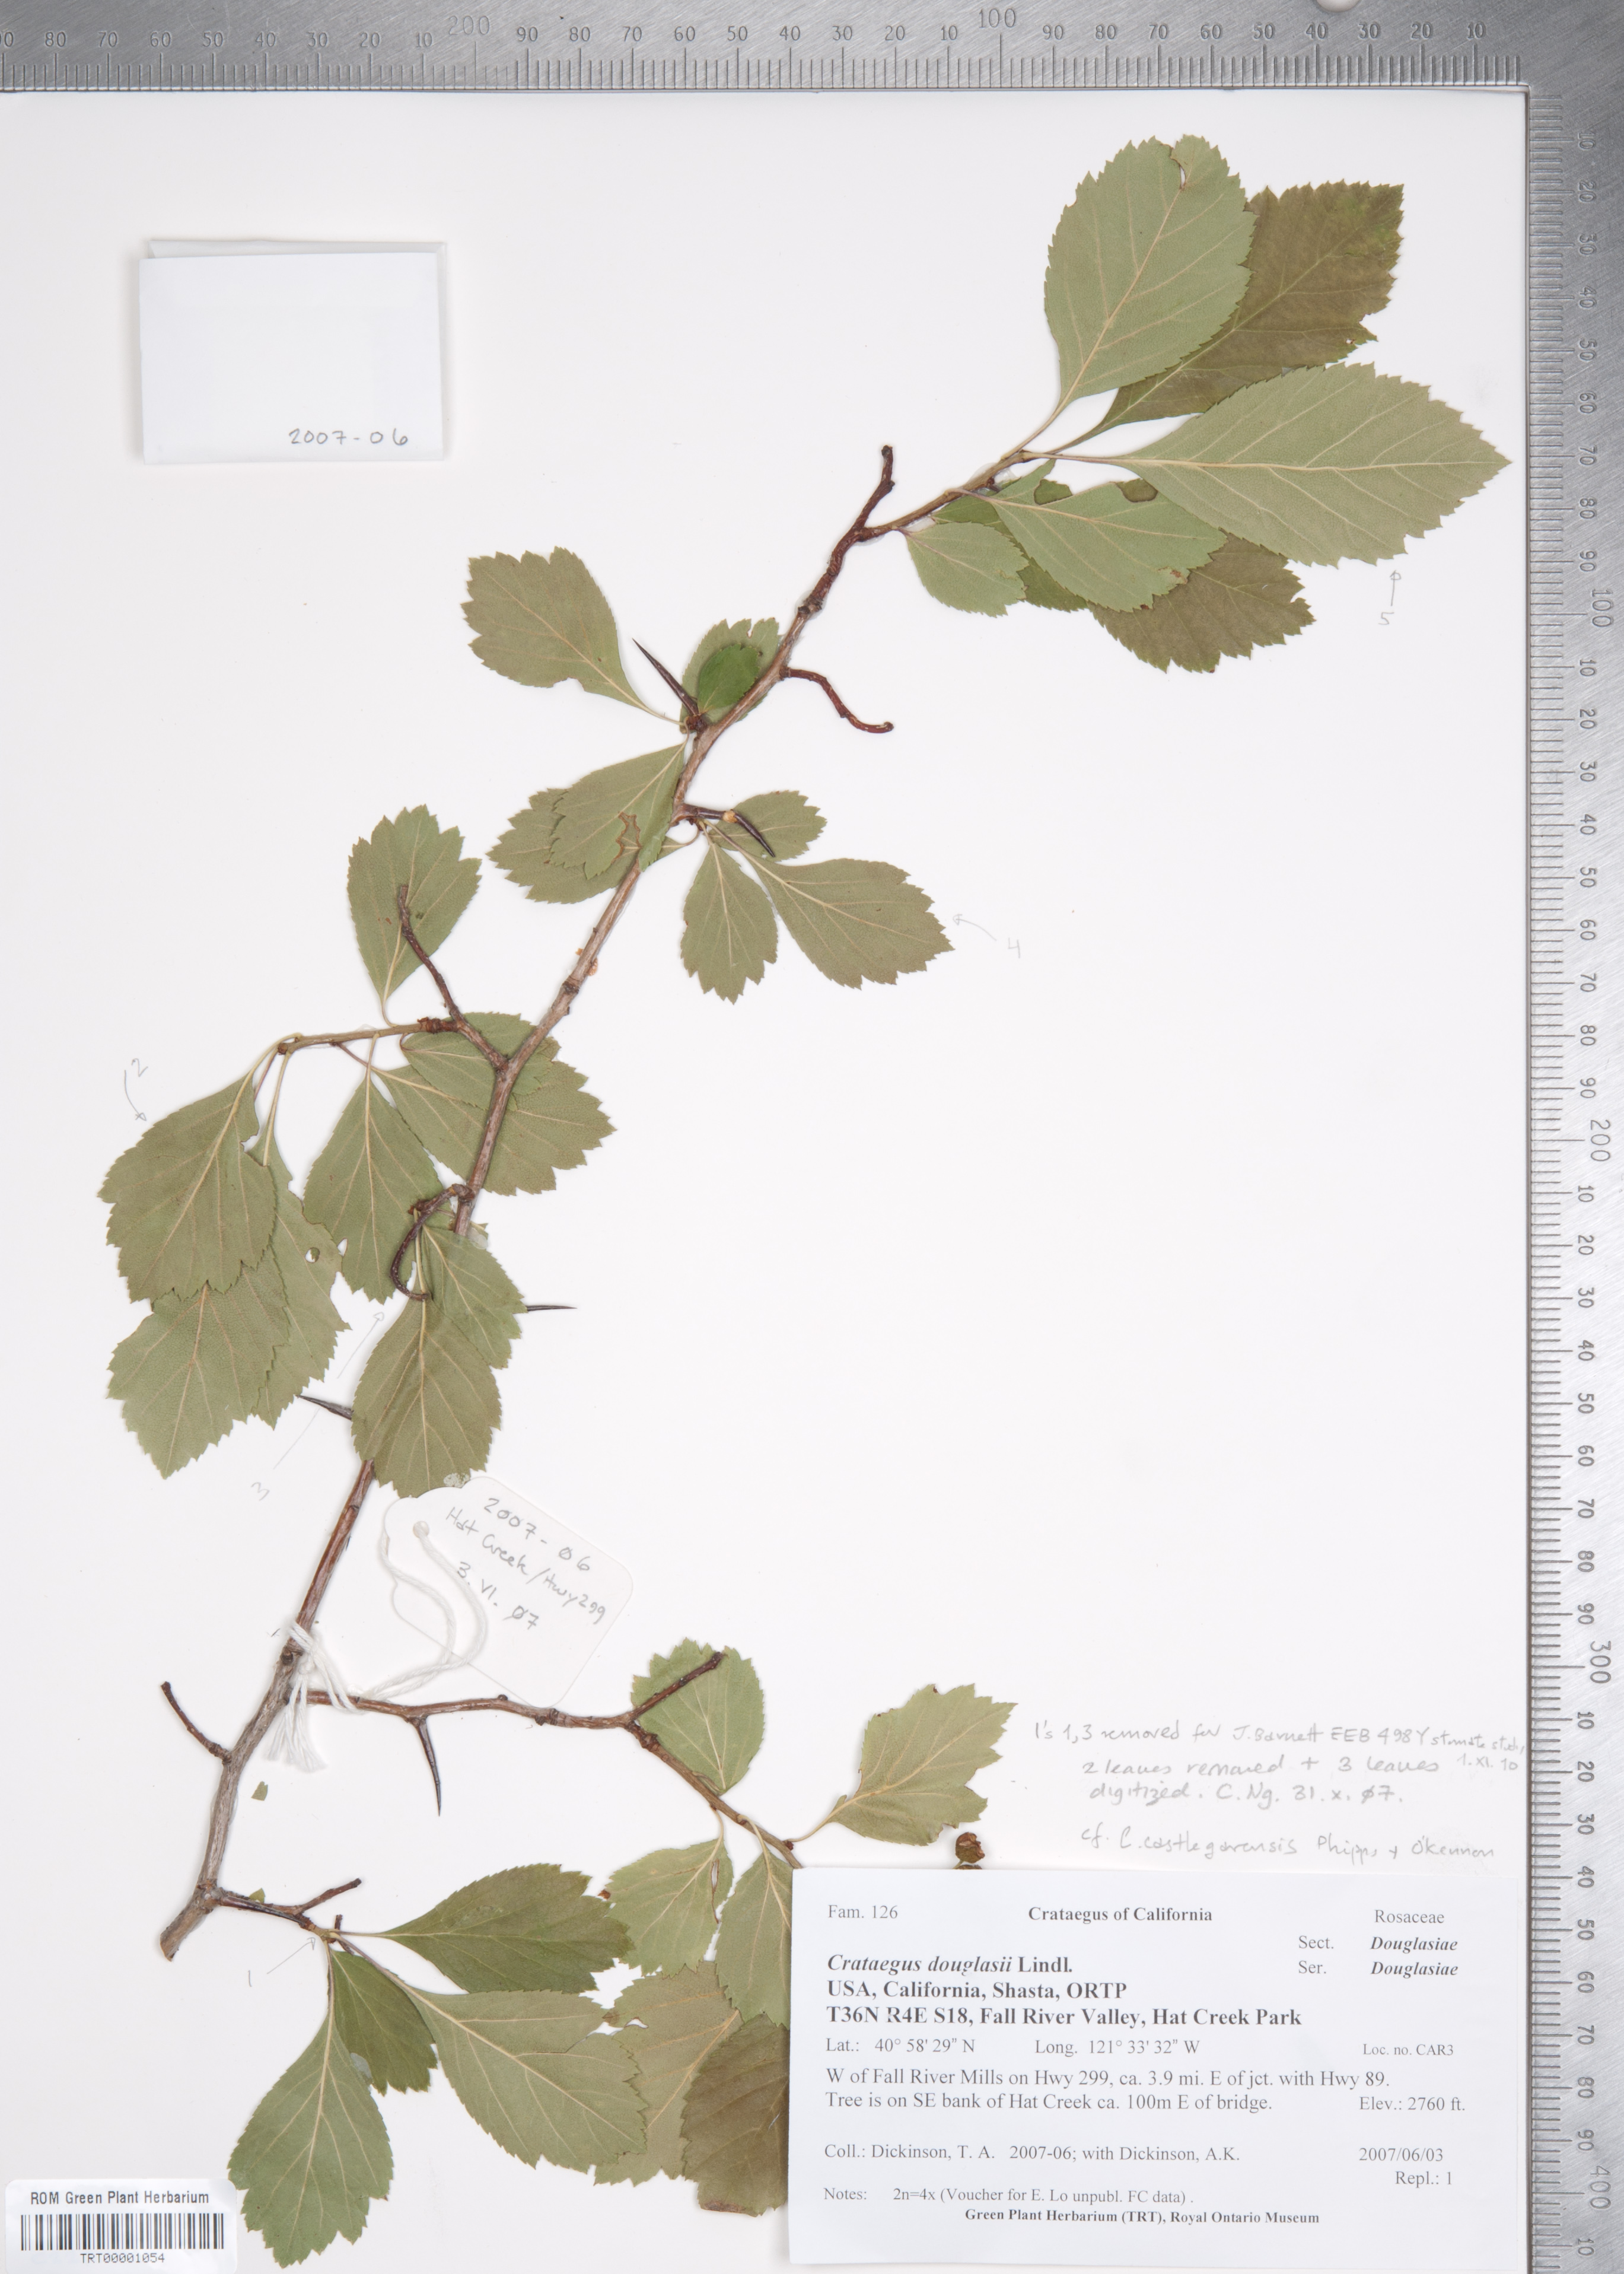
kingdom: Plantae
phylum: Tracheophyta
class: Magnoliopsida
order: Rosales
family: Rosaceae
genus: Crataegus
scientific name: Crataegus castlegarensis
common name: Castlegar hawthorn
